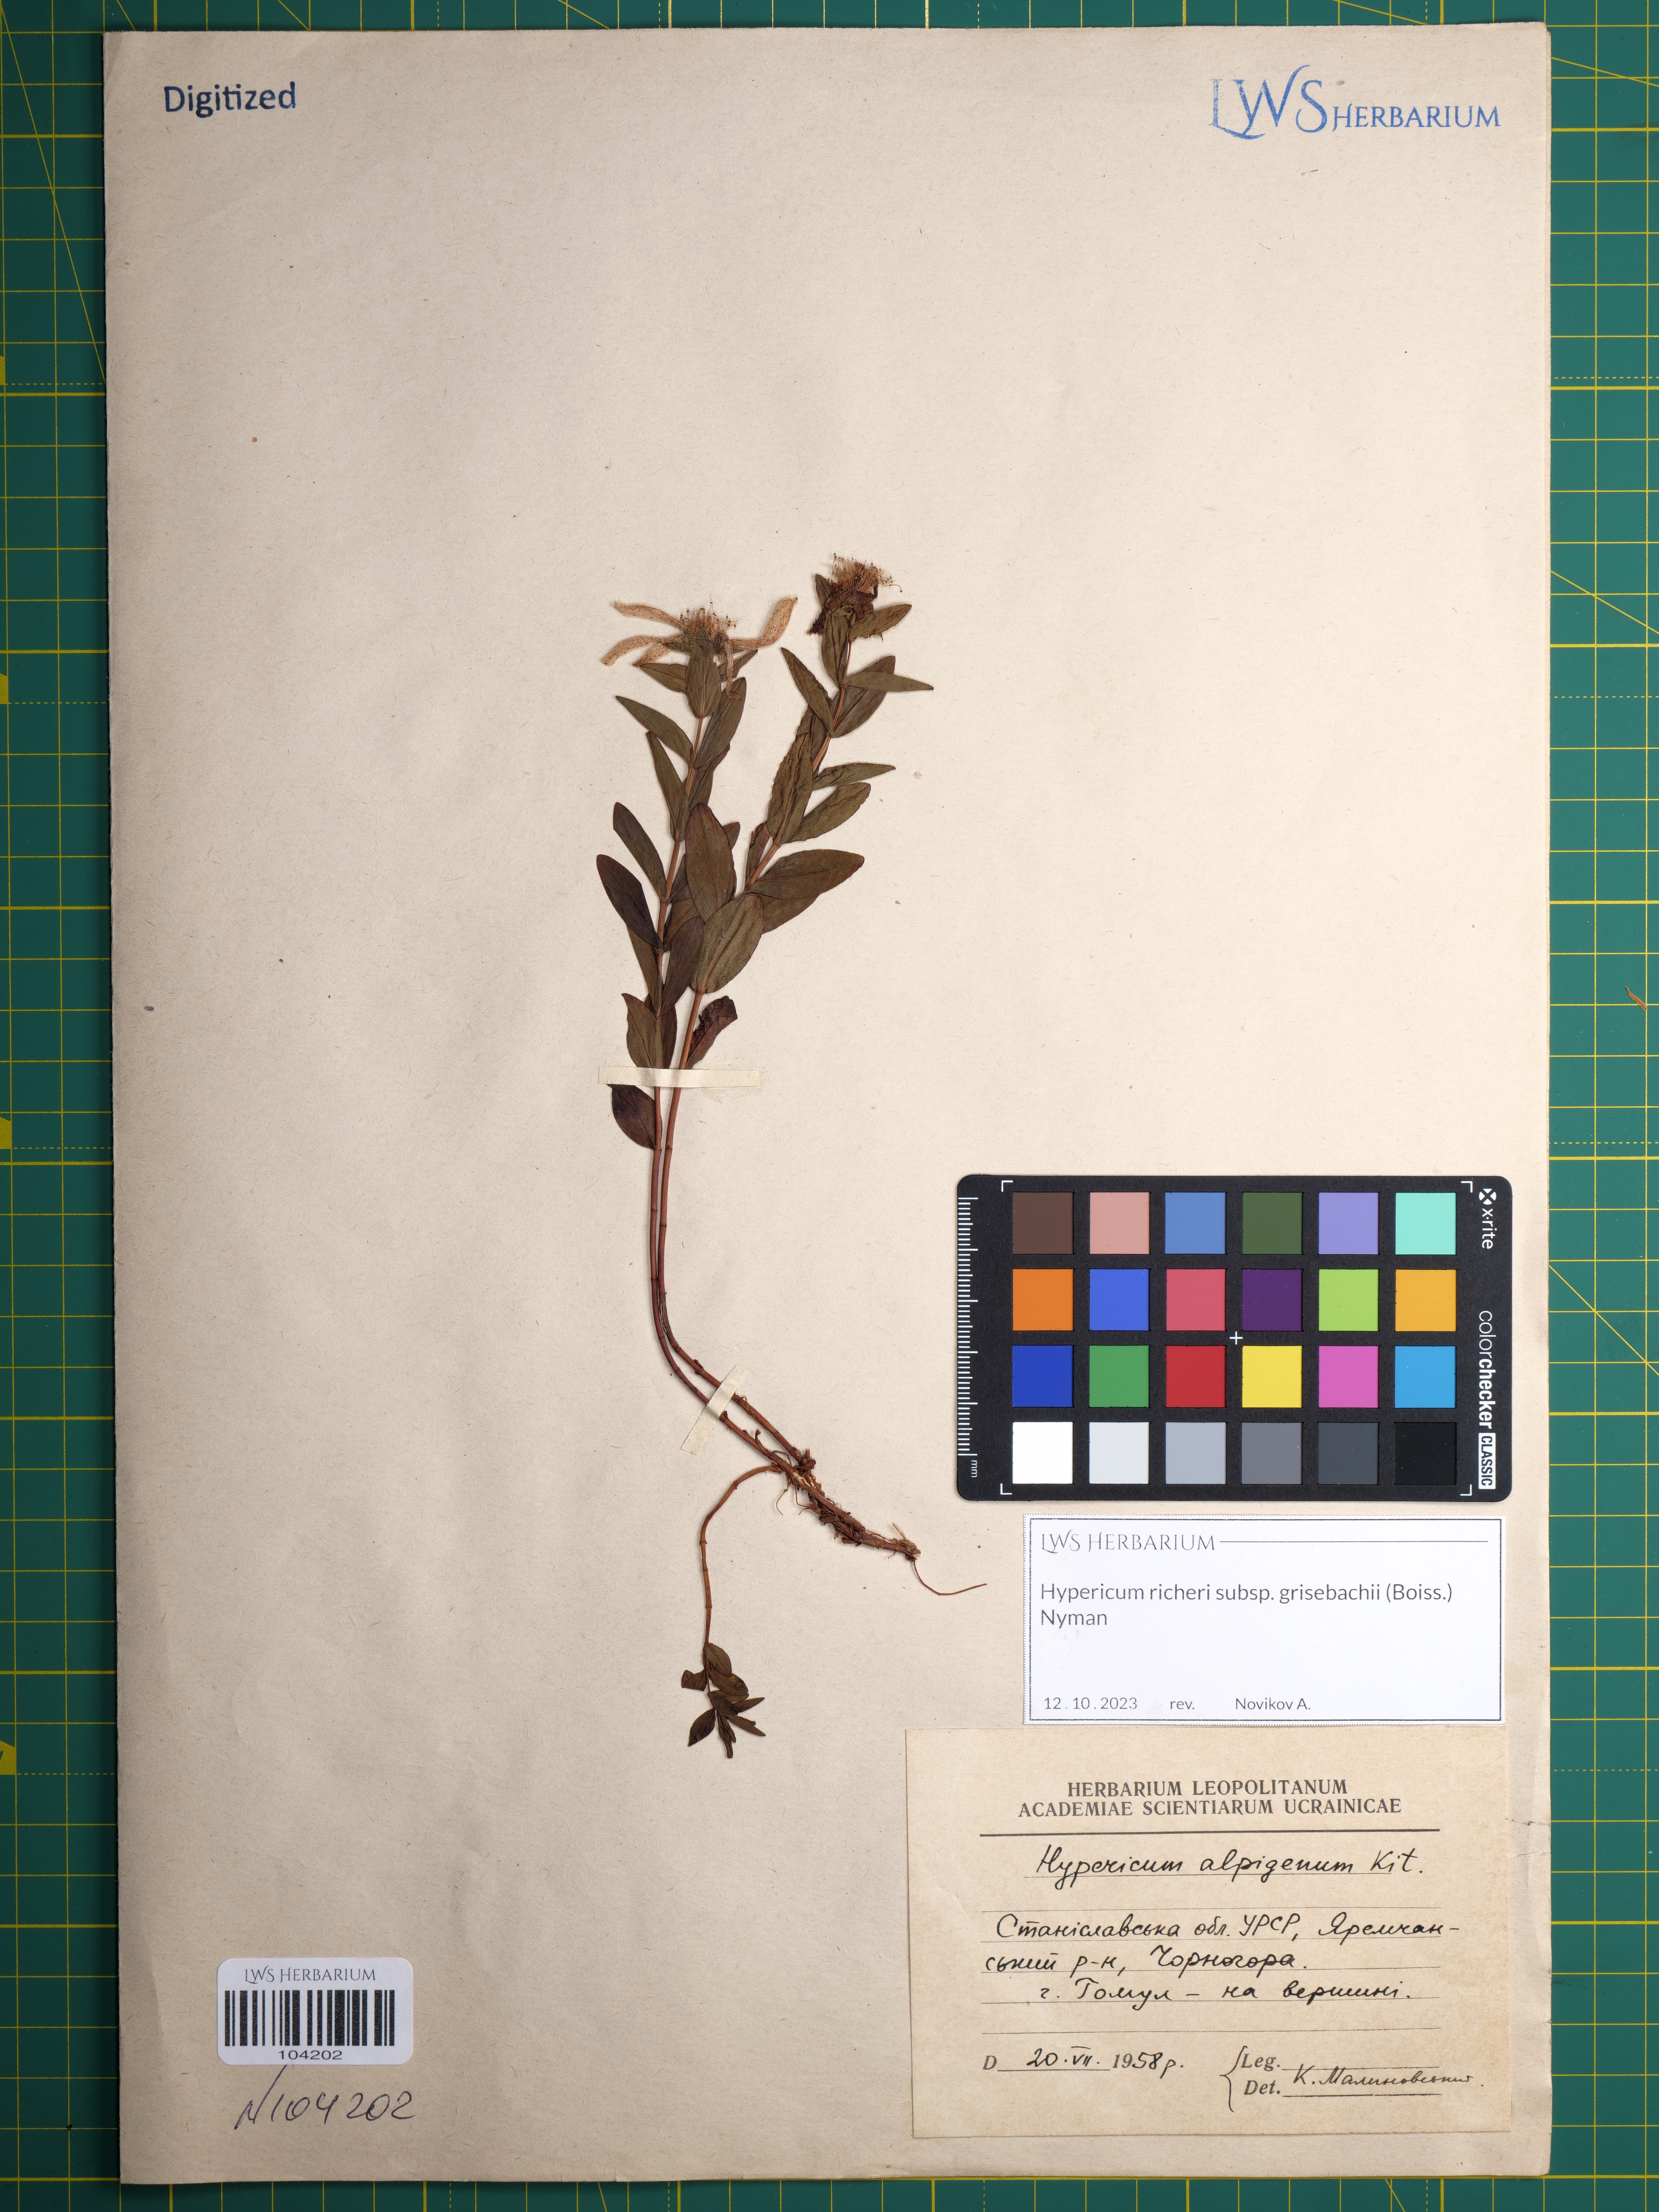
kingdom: Plantae
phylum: Tracheophyta
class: Magnoliopsida
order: Malpighiales
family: Hypericaceae
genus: Hypericum
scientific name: Hypericum richeri
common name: Alpine st john's-wort
